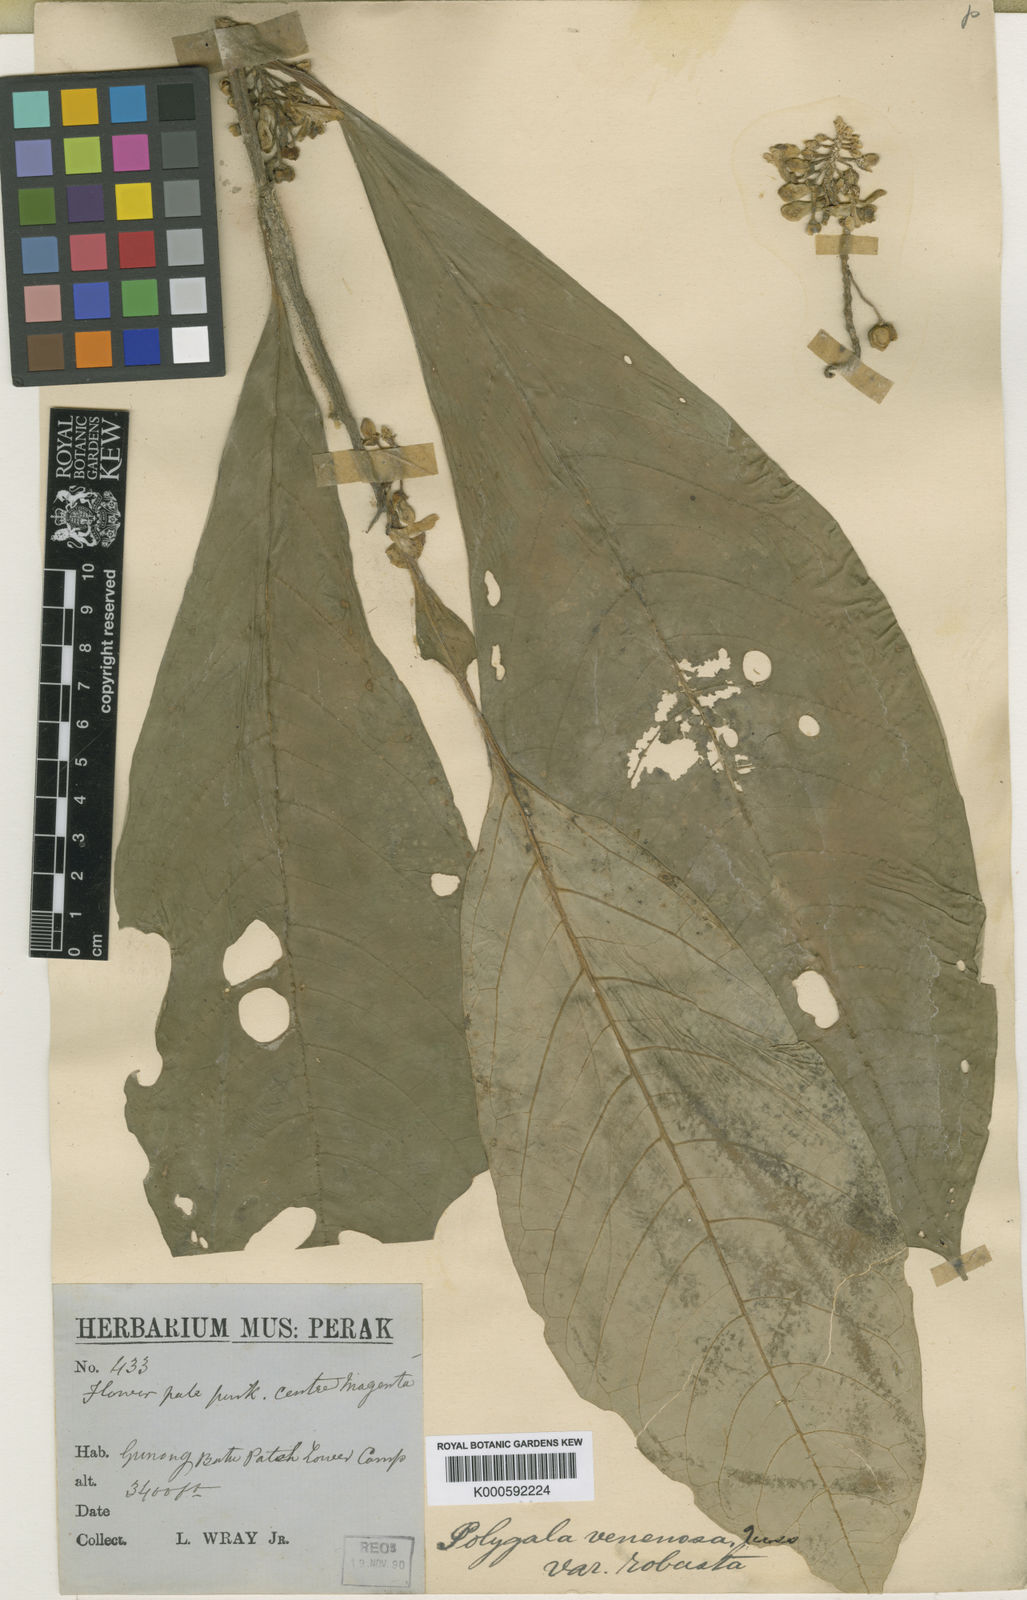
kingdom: Plantae
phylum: Tracheophyta
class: Magnoliopsida
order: Fabales
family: Polygalaceae
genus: Polygala
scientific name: Polygala venenosa
